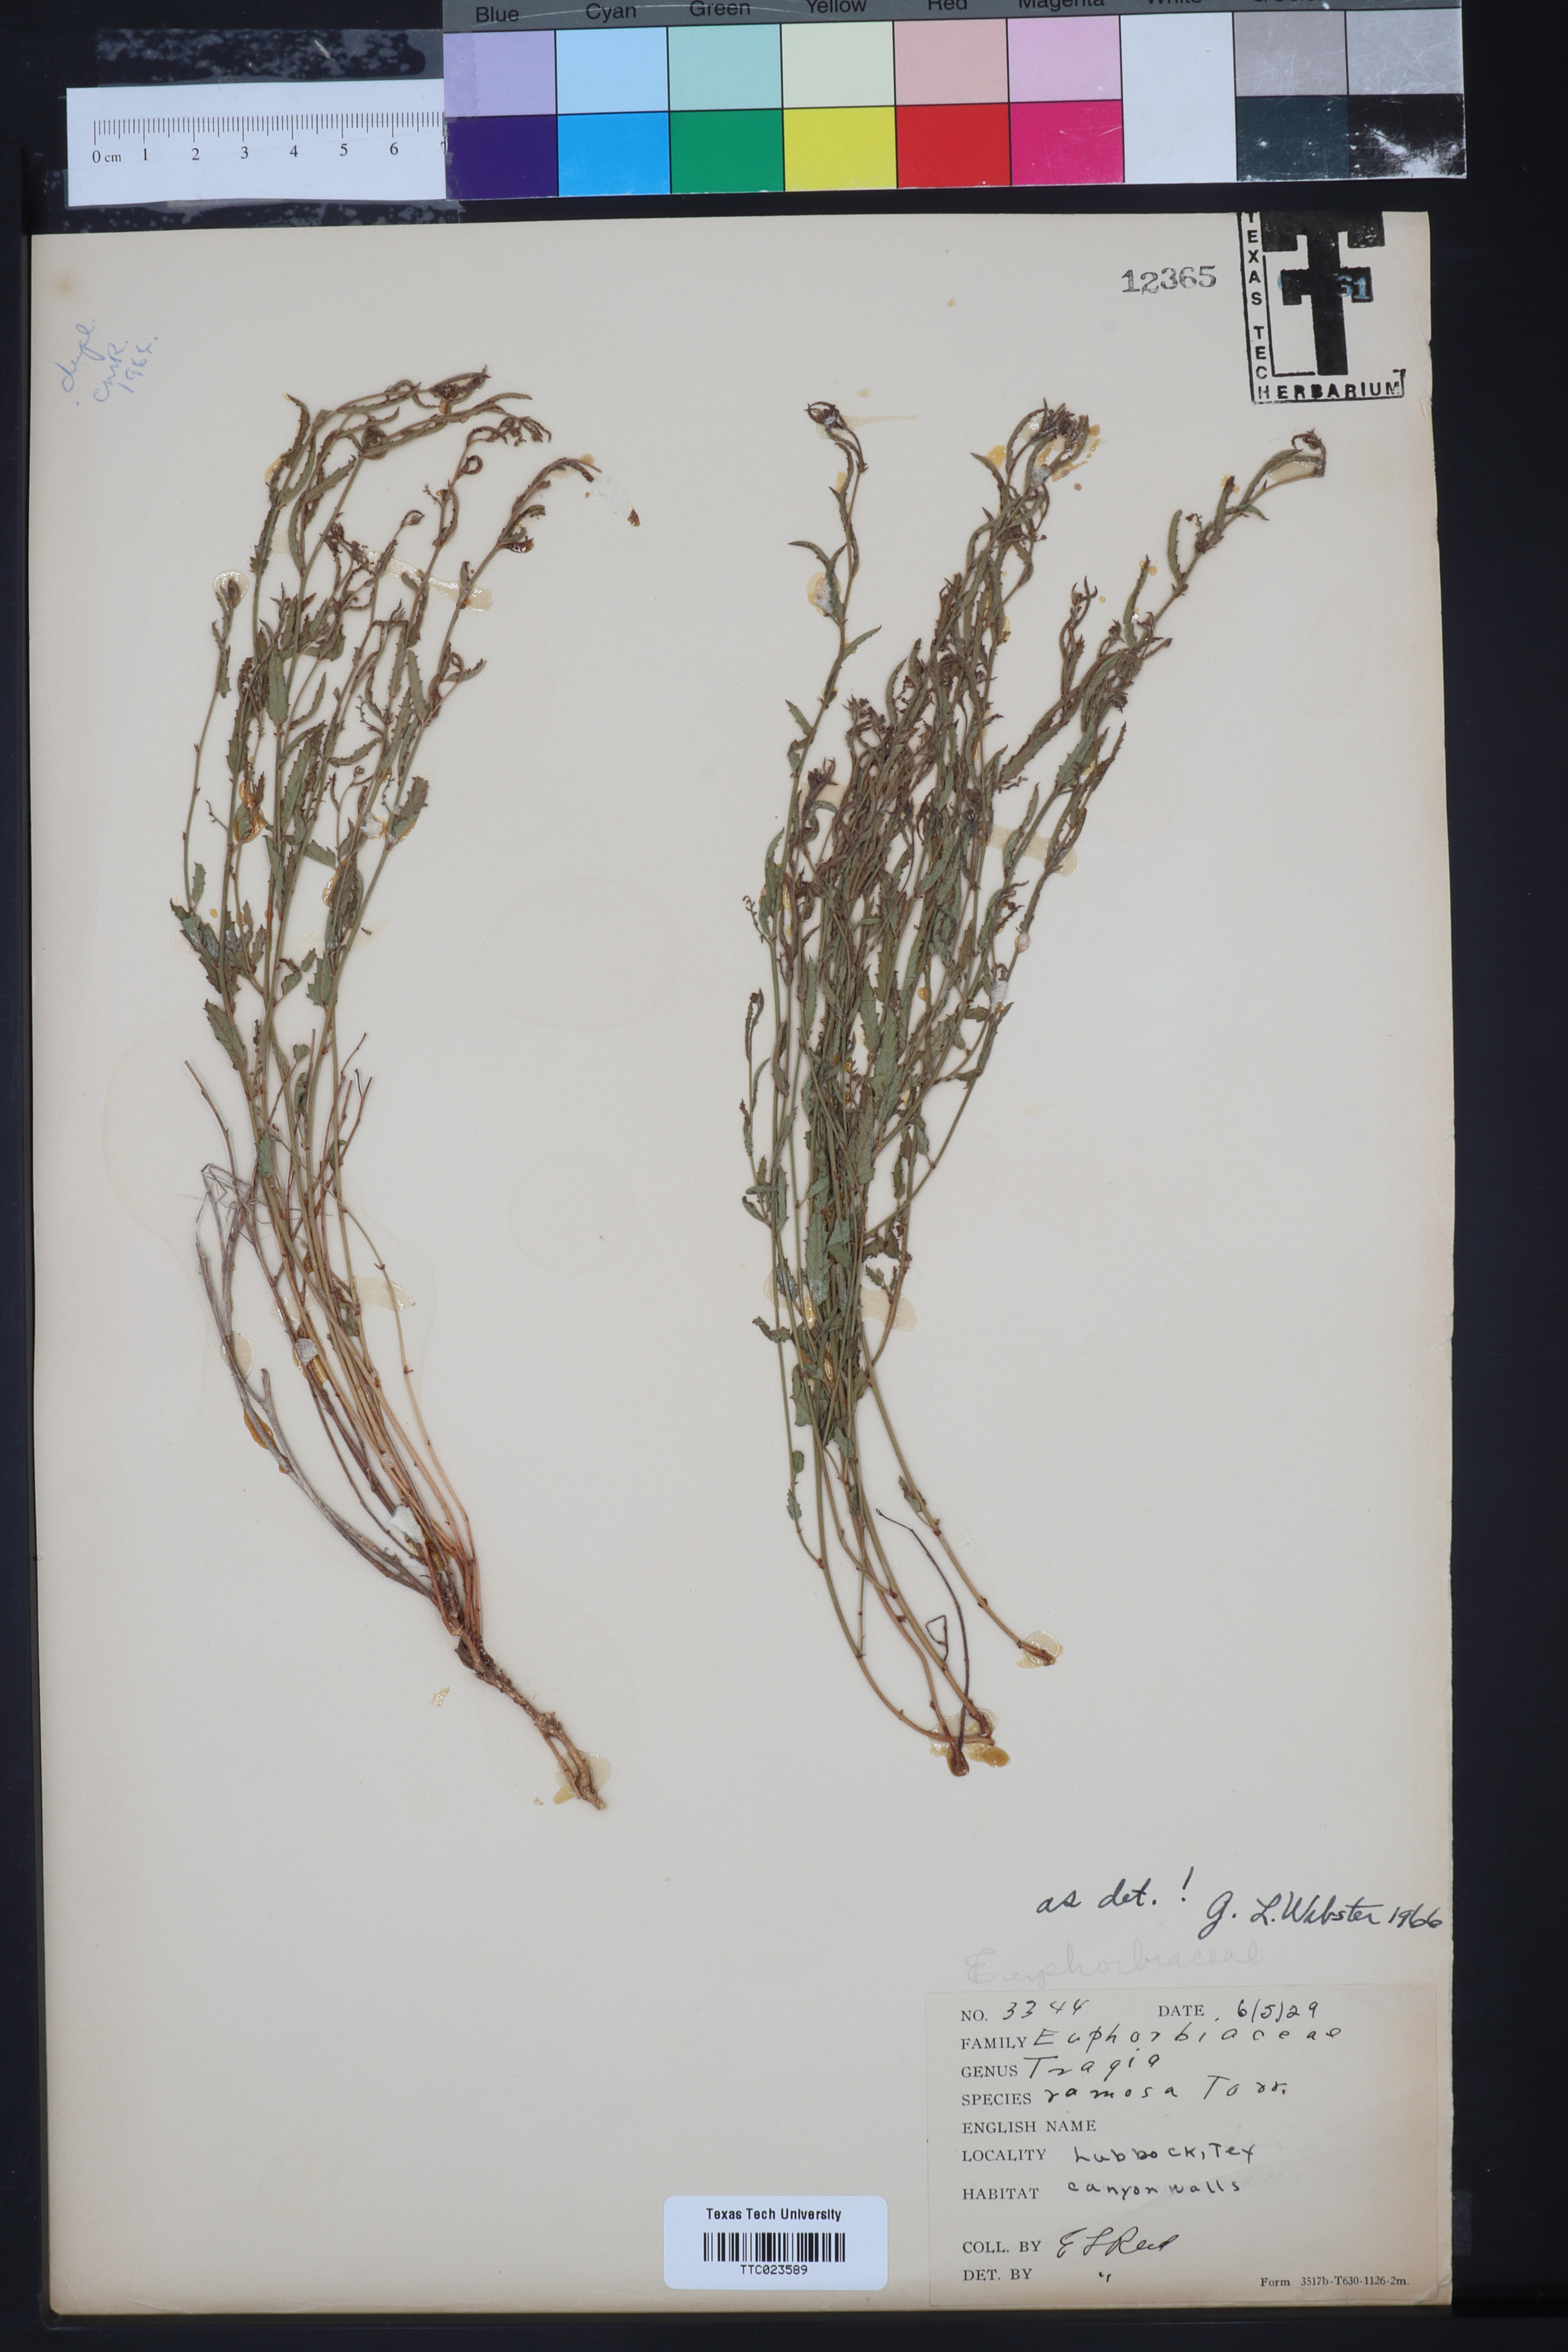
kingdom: Plantae
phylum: Tracheophyta
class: Magnoliopsida
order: Malpighiales
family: Euphorbiaceae
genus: Tragia
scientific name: Tragia ramosa
